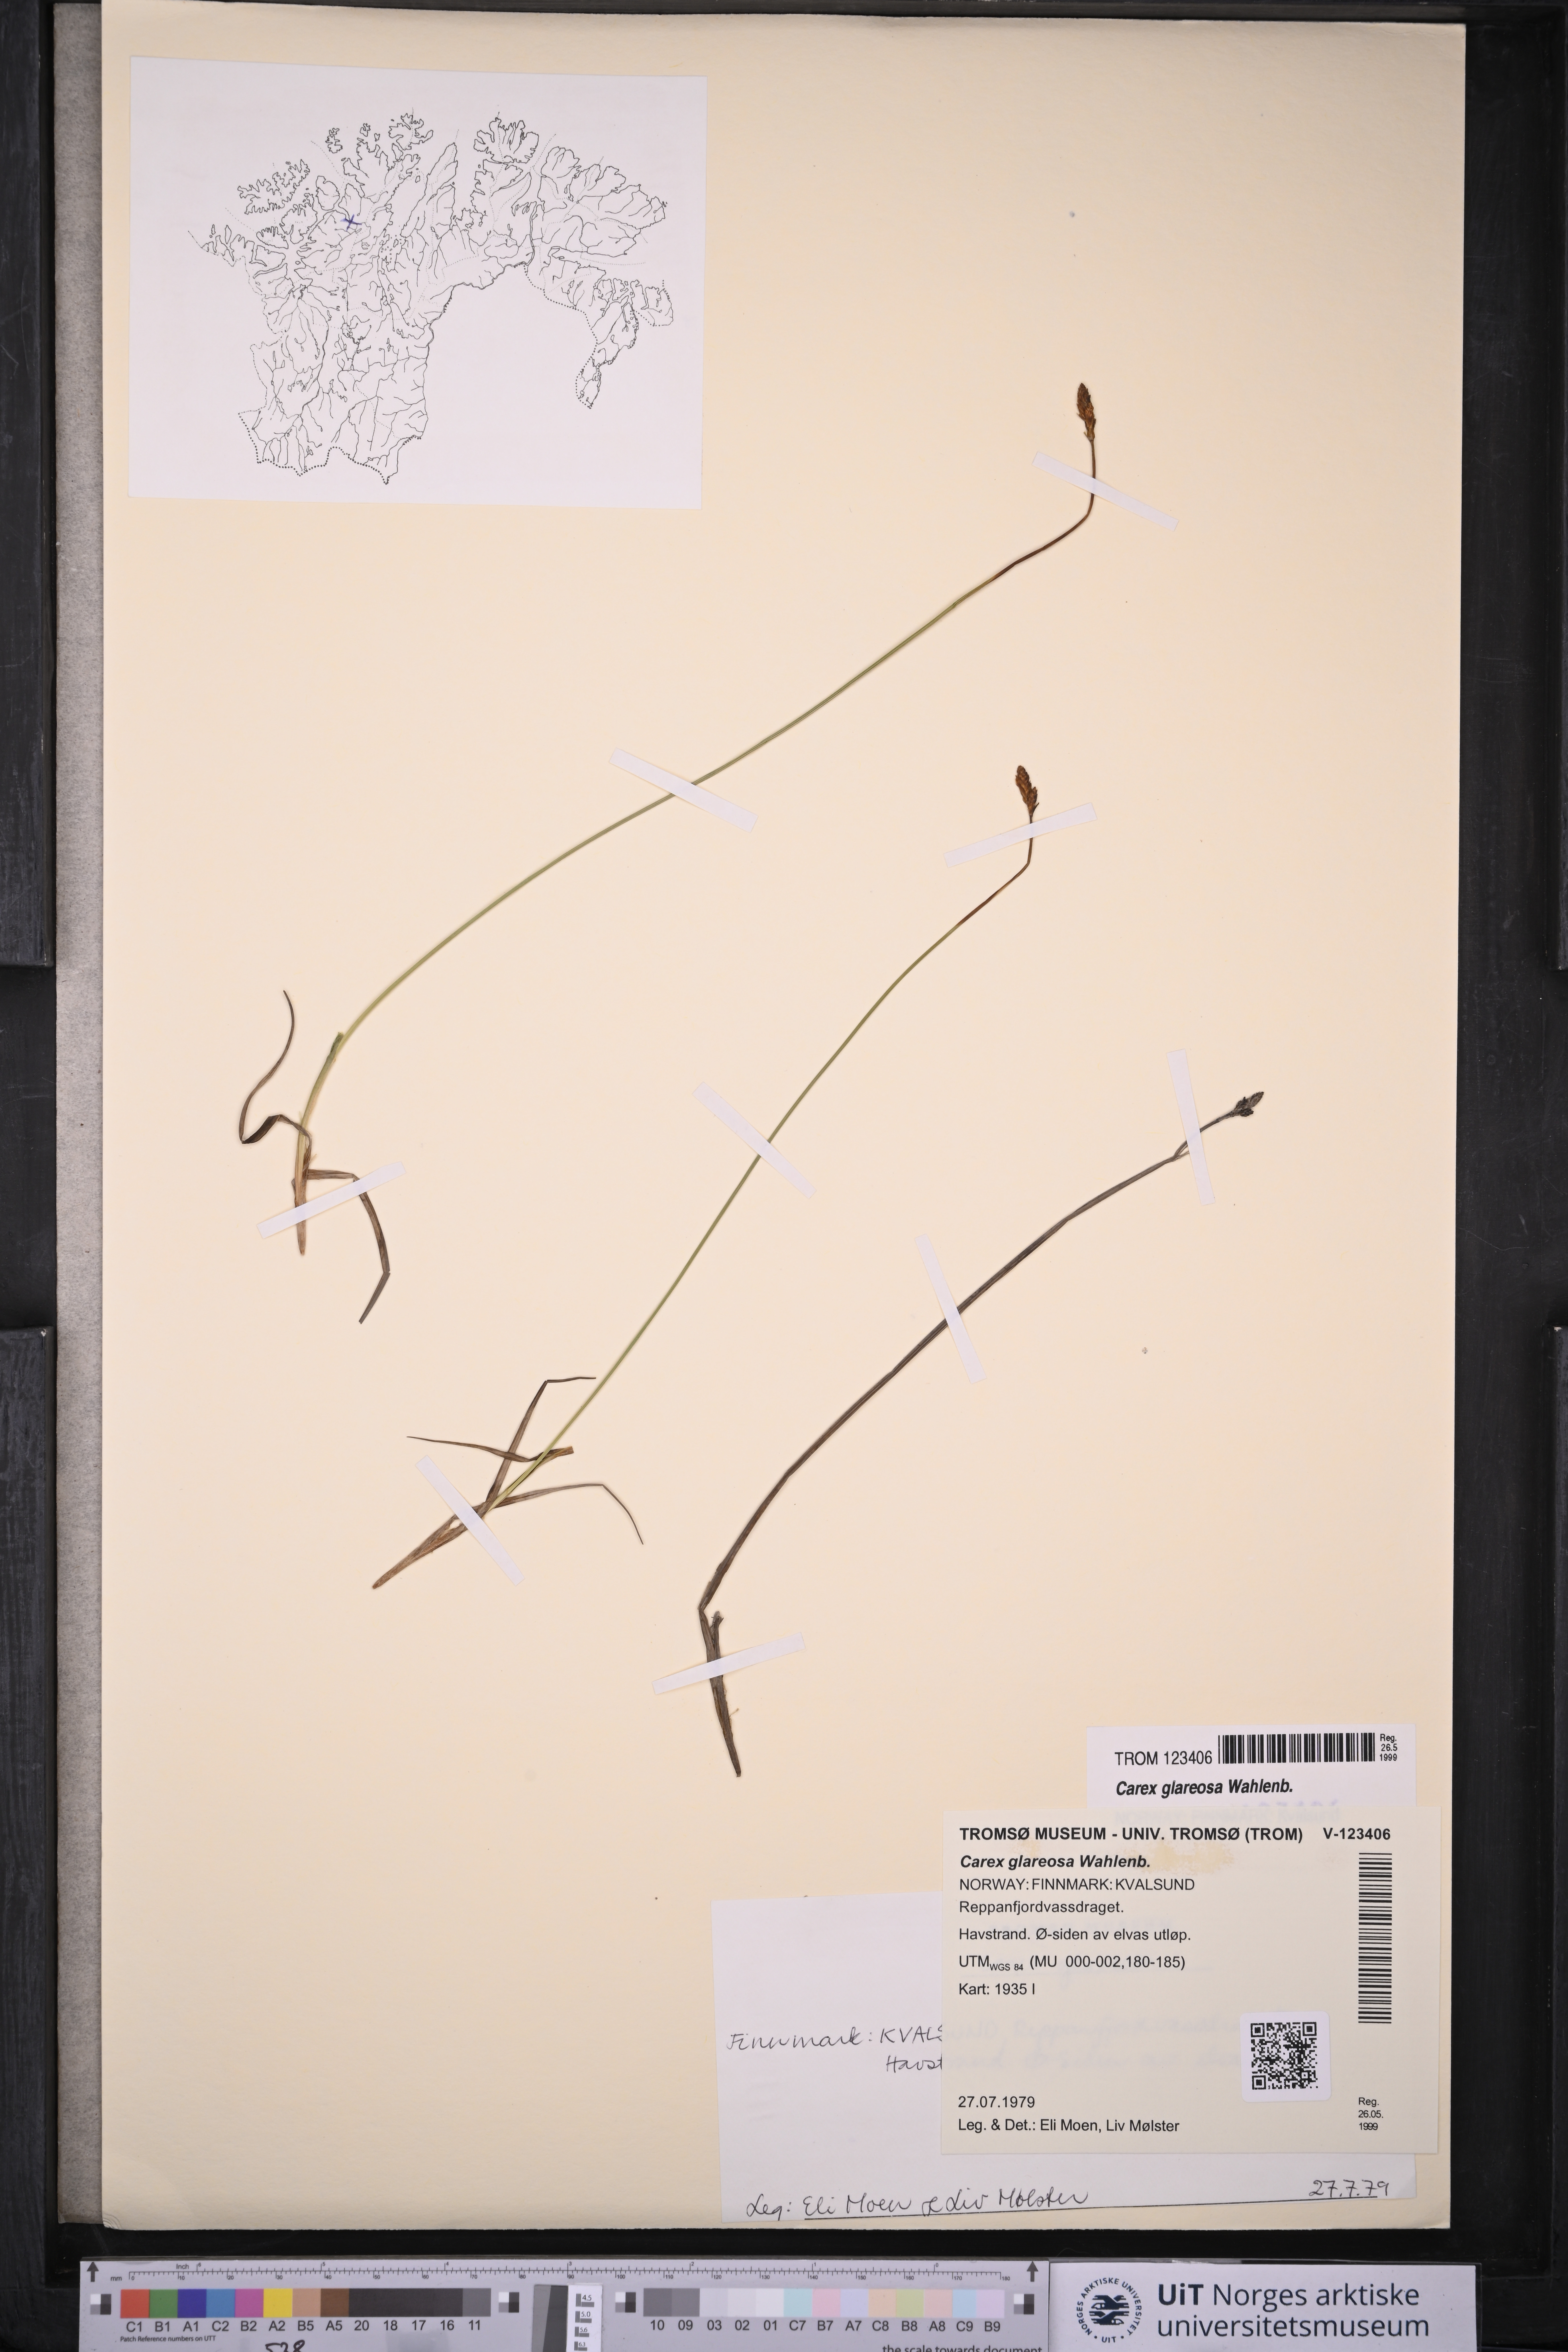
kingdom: Plantae
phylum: Tracheophyta
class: Liliopsida
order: Poales
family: Cyperaceae
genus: Carex
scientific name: Carex glareosa
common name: Clustered sedge
